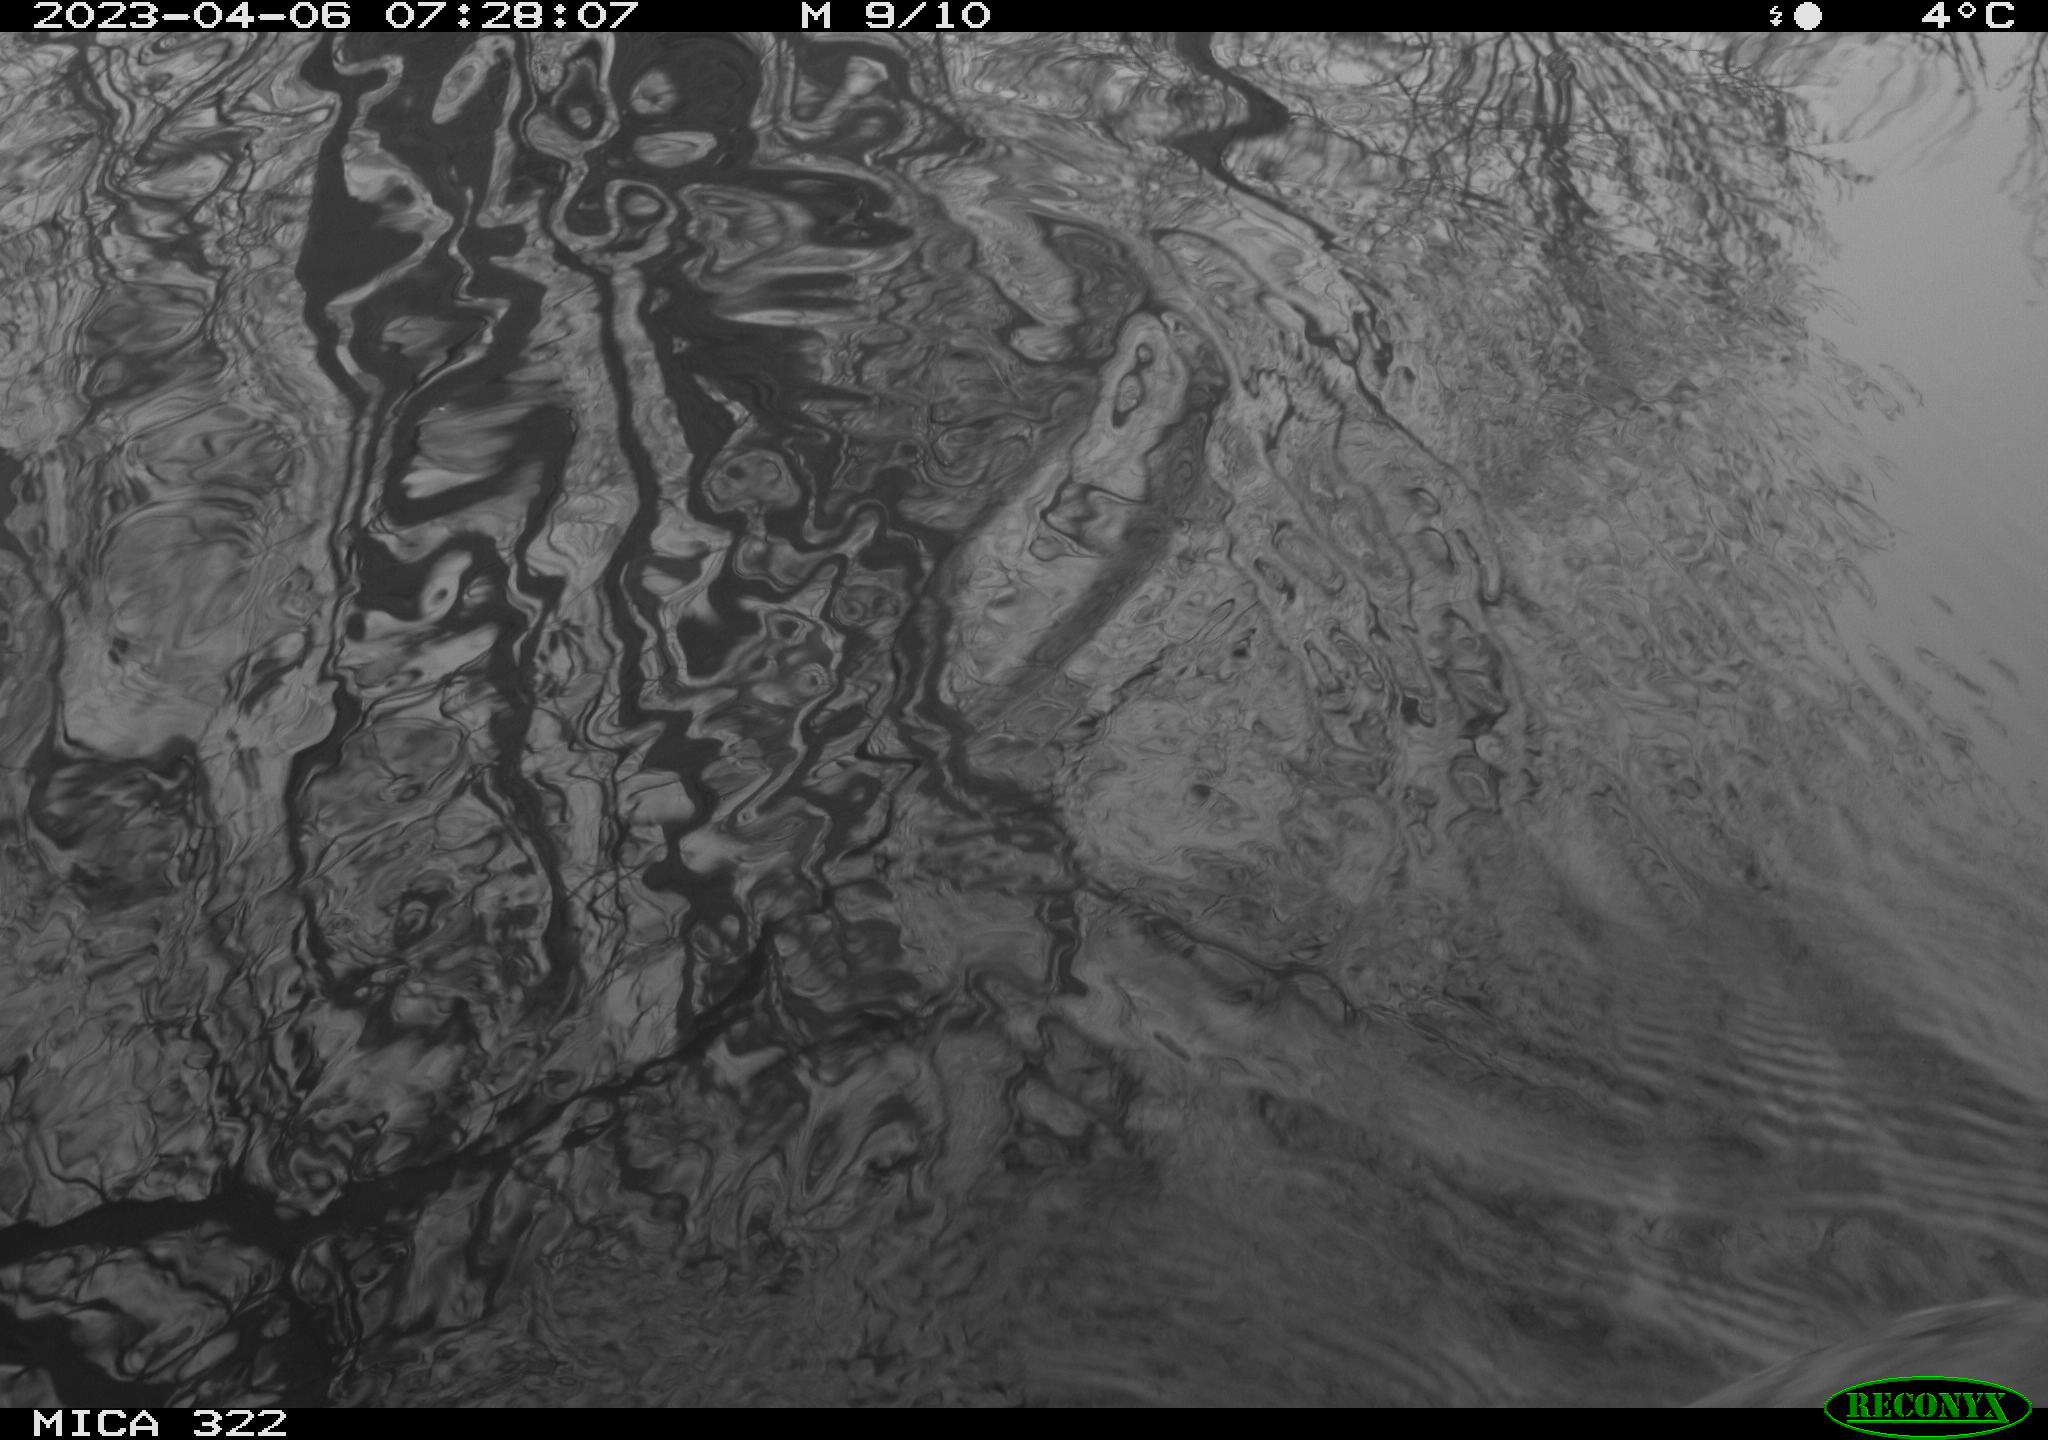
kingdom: Animalia
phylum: Chordata
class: Aves
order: Gruiformes
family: Rallidae
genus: Fulica
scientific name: Fulica atra
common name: Eurasian coot
